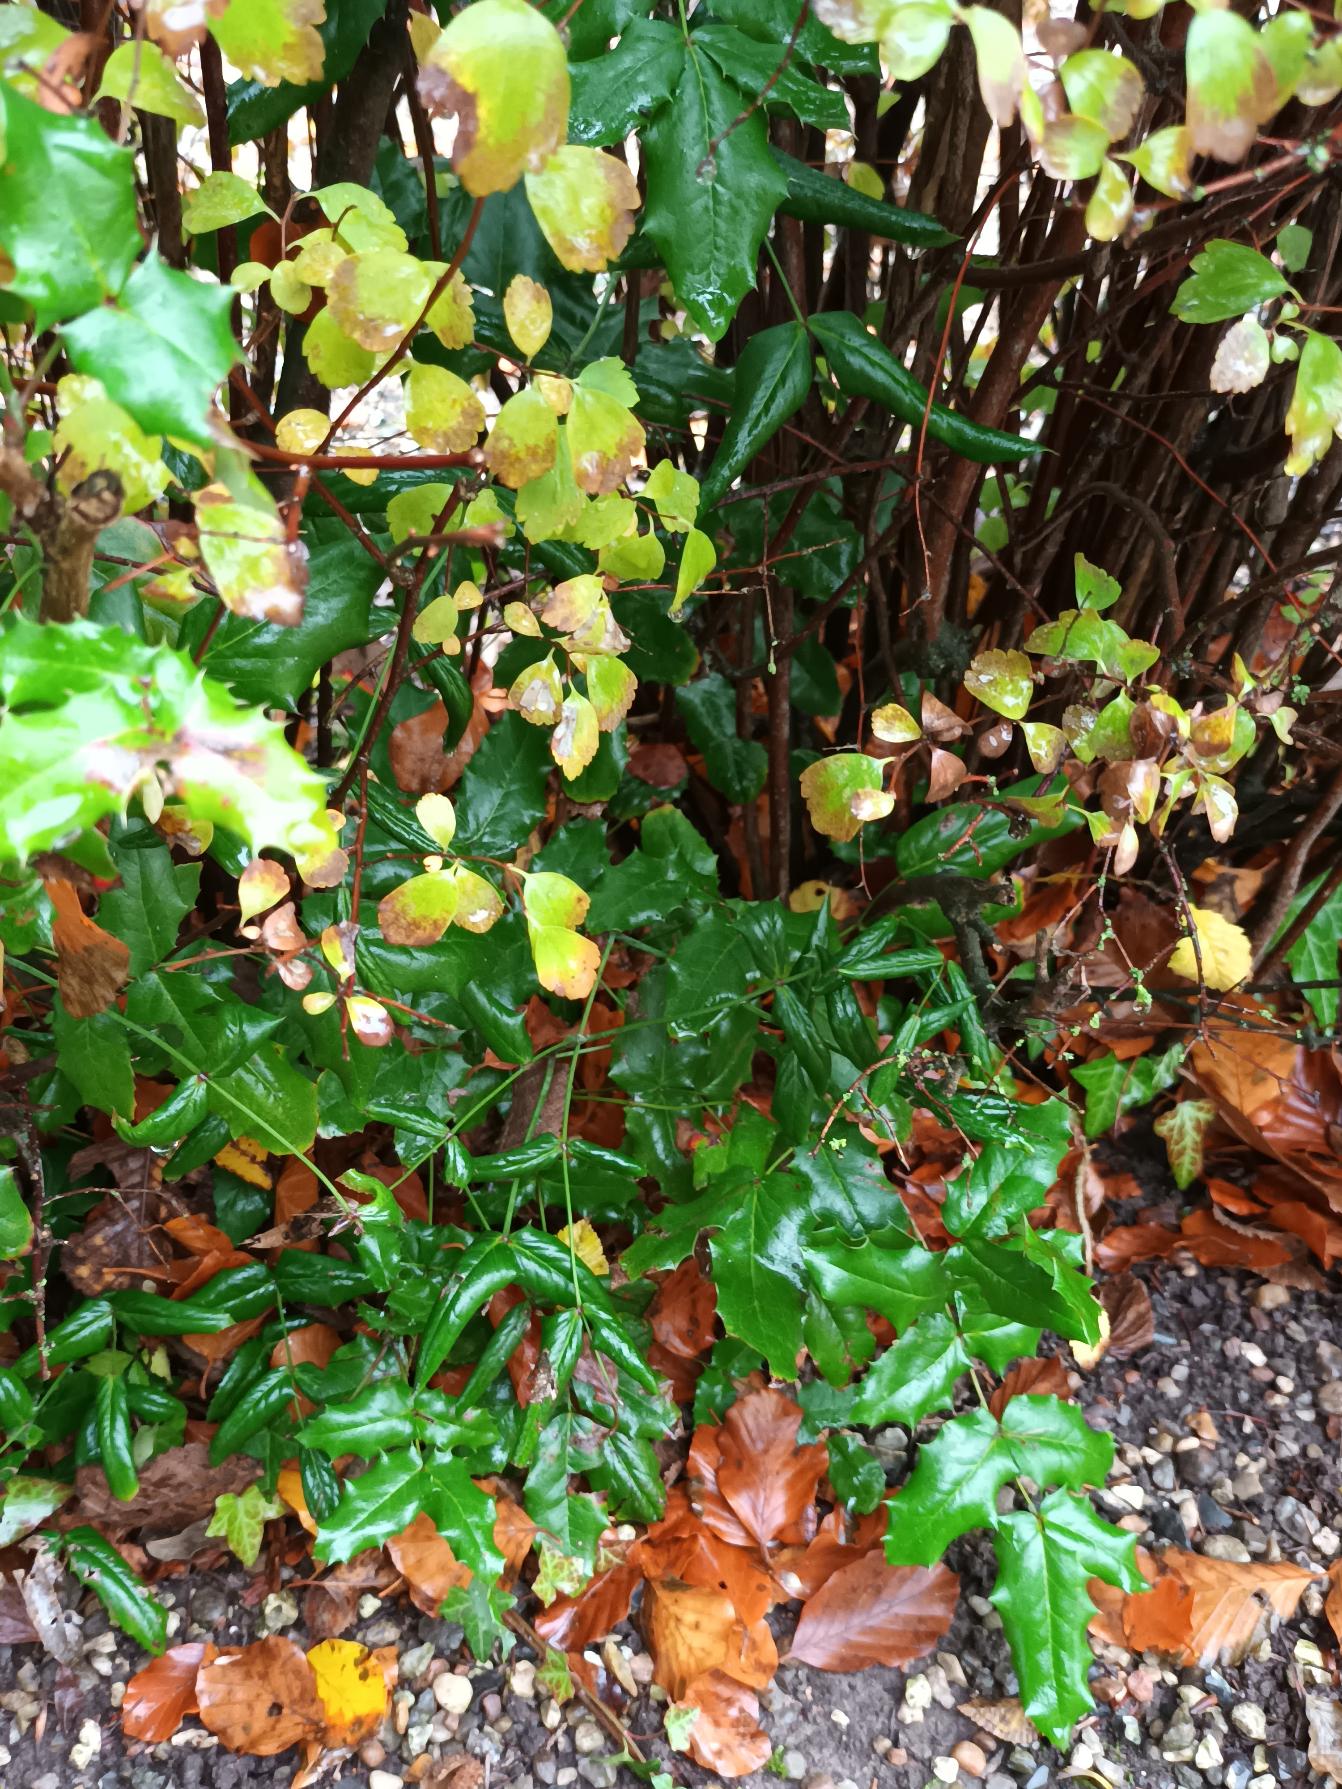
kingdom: Plantae
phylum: Tracheophyta
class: Magnoliopsida
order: Ranunculales
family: Berberidaceae
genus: Mahonia
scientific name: Mahonia aquifolium
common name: Almindelig mahonie
